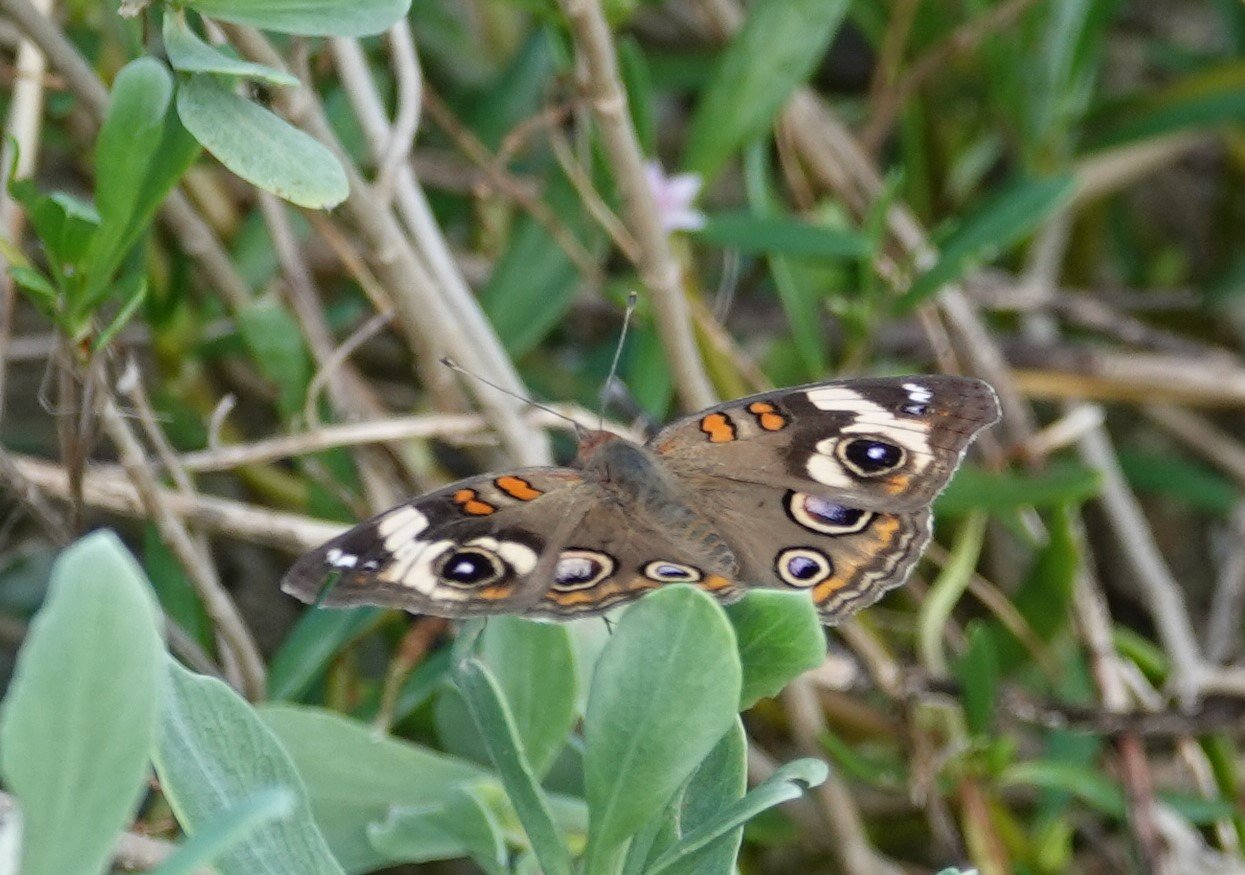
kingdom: Animalia
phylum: Arthropoda
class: Insecta
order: Lepidoptera
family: Nymphalidae
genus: Junonia
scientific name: Junonia coenia
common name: Common Buckeye
